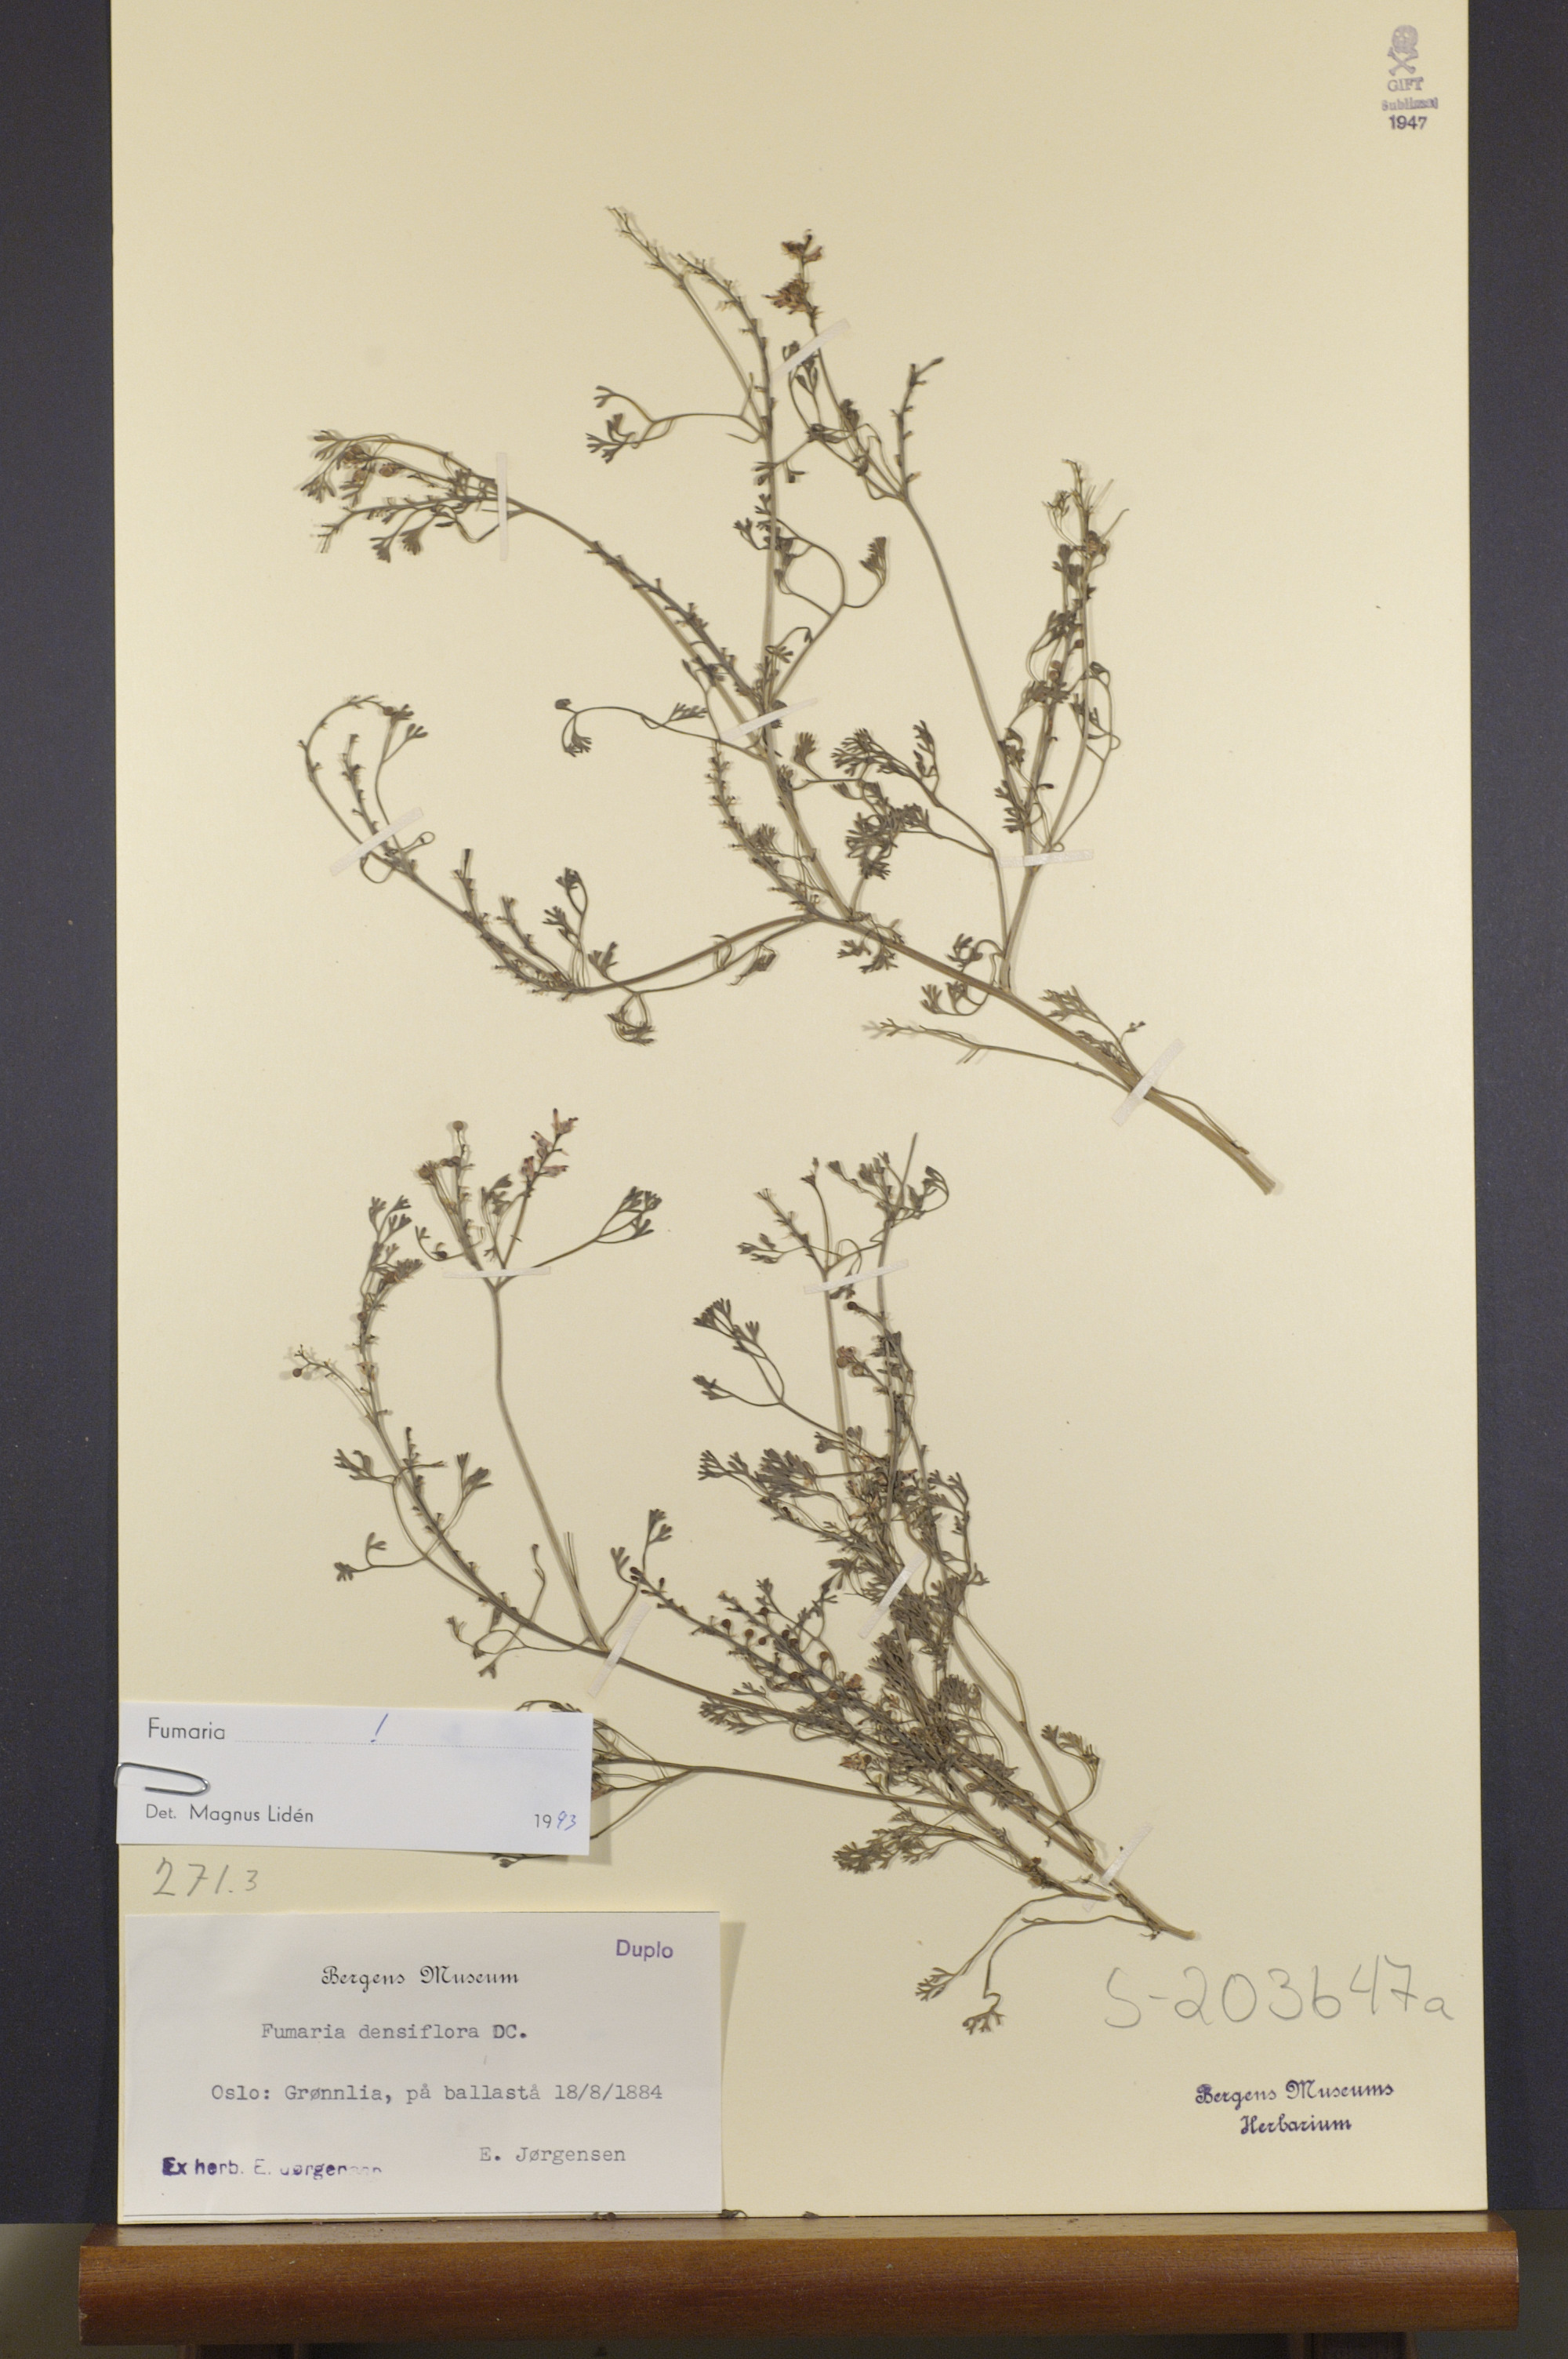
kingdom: Plantae
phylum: Tracheophyta
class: Magnoliopsida
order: Ranunculales
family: Papaveraceae
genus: Fumaria
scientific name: Fumaria densiflora
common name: Dense-flowered fumitory
